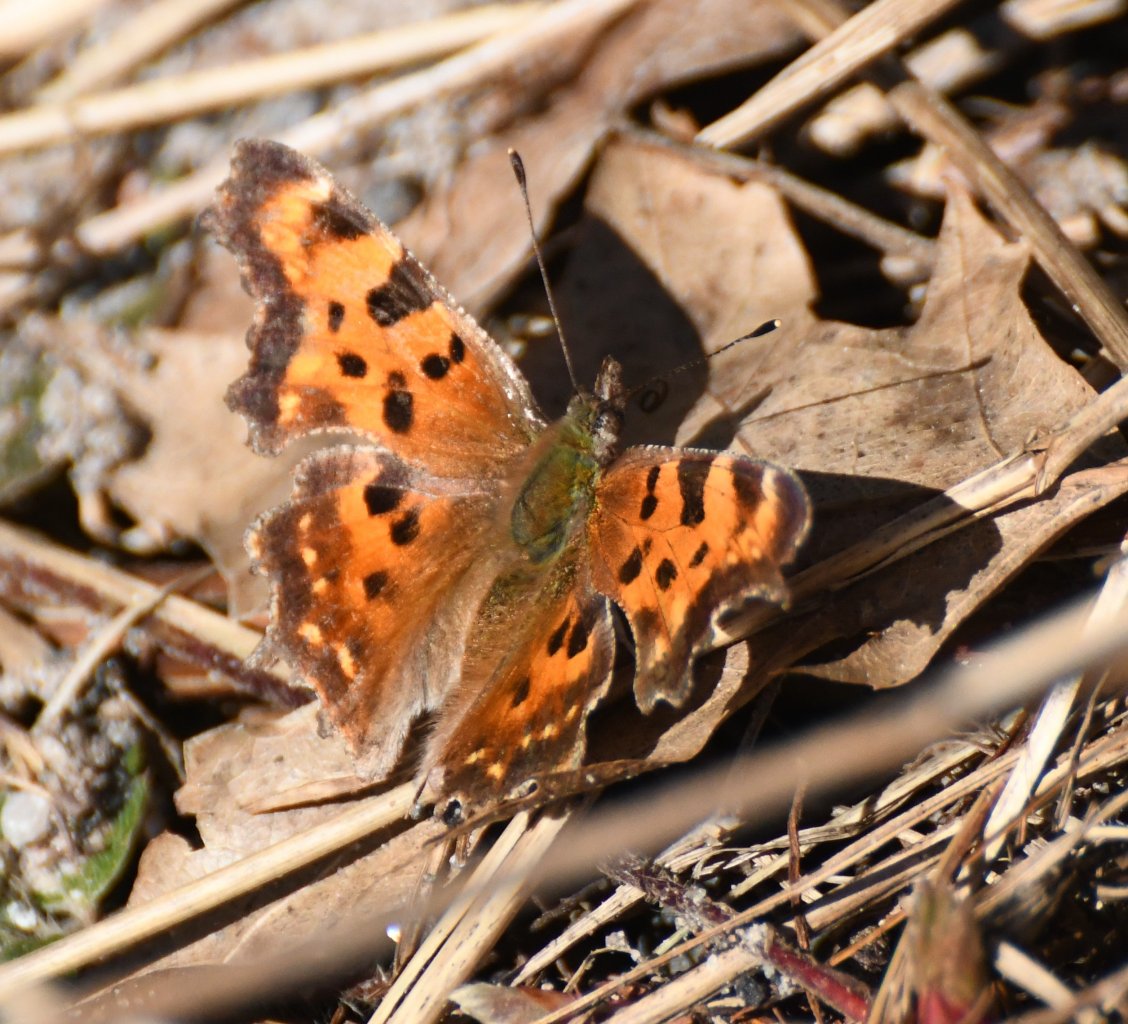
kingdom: Animalia
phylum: Arthropoda
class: Insecta
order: Lepidoptera
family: Nymphalidae
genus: Polygonia
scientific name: Polygonia faunus
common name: Green Comma
